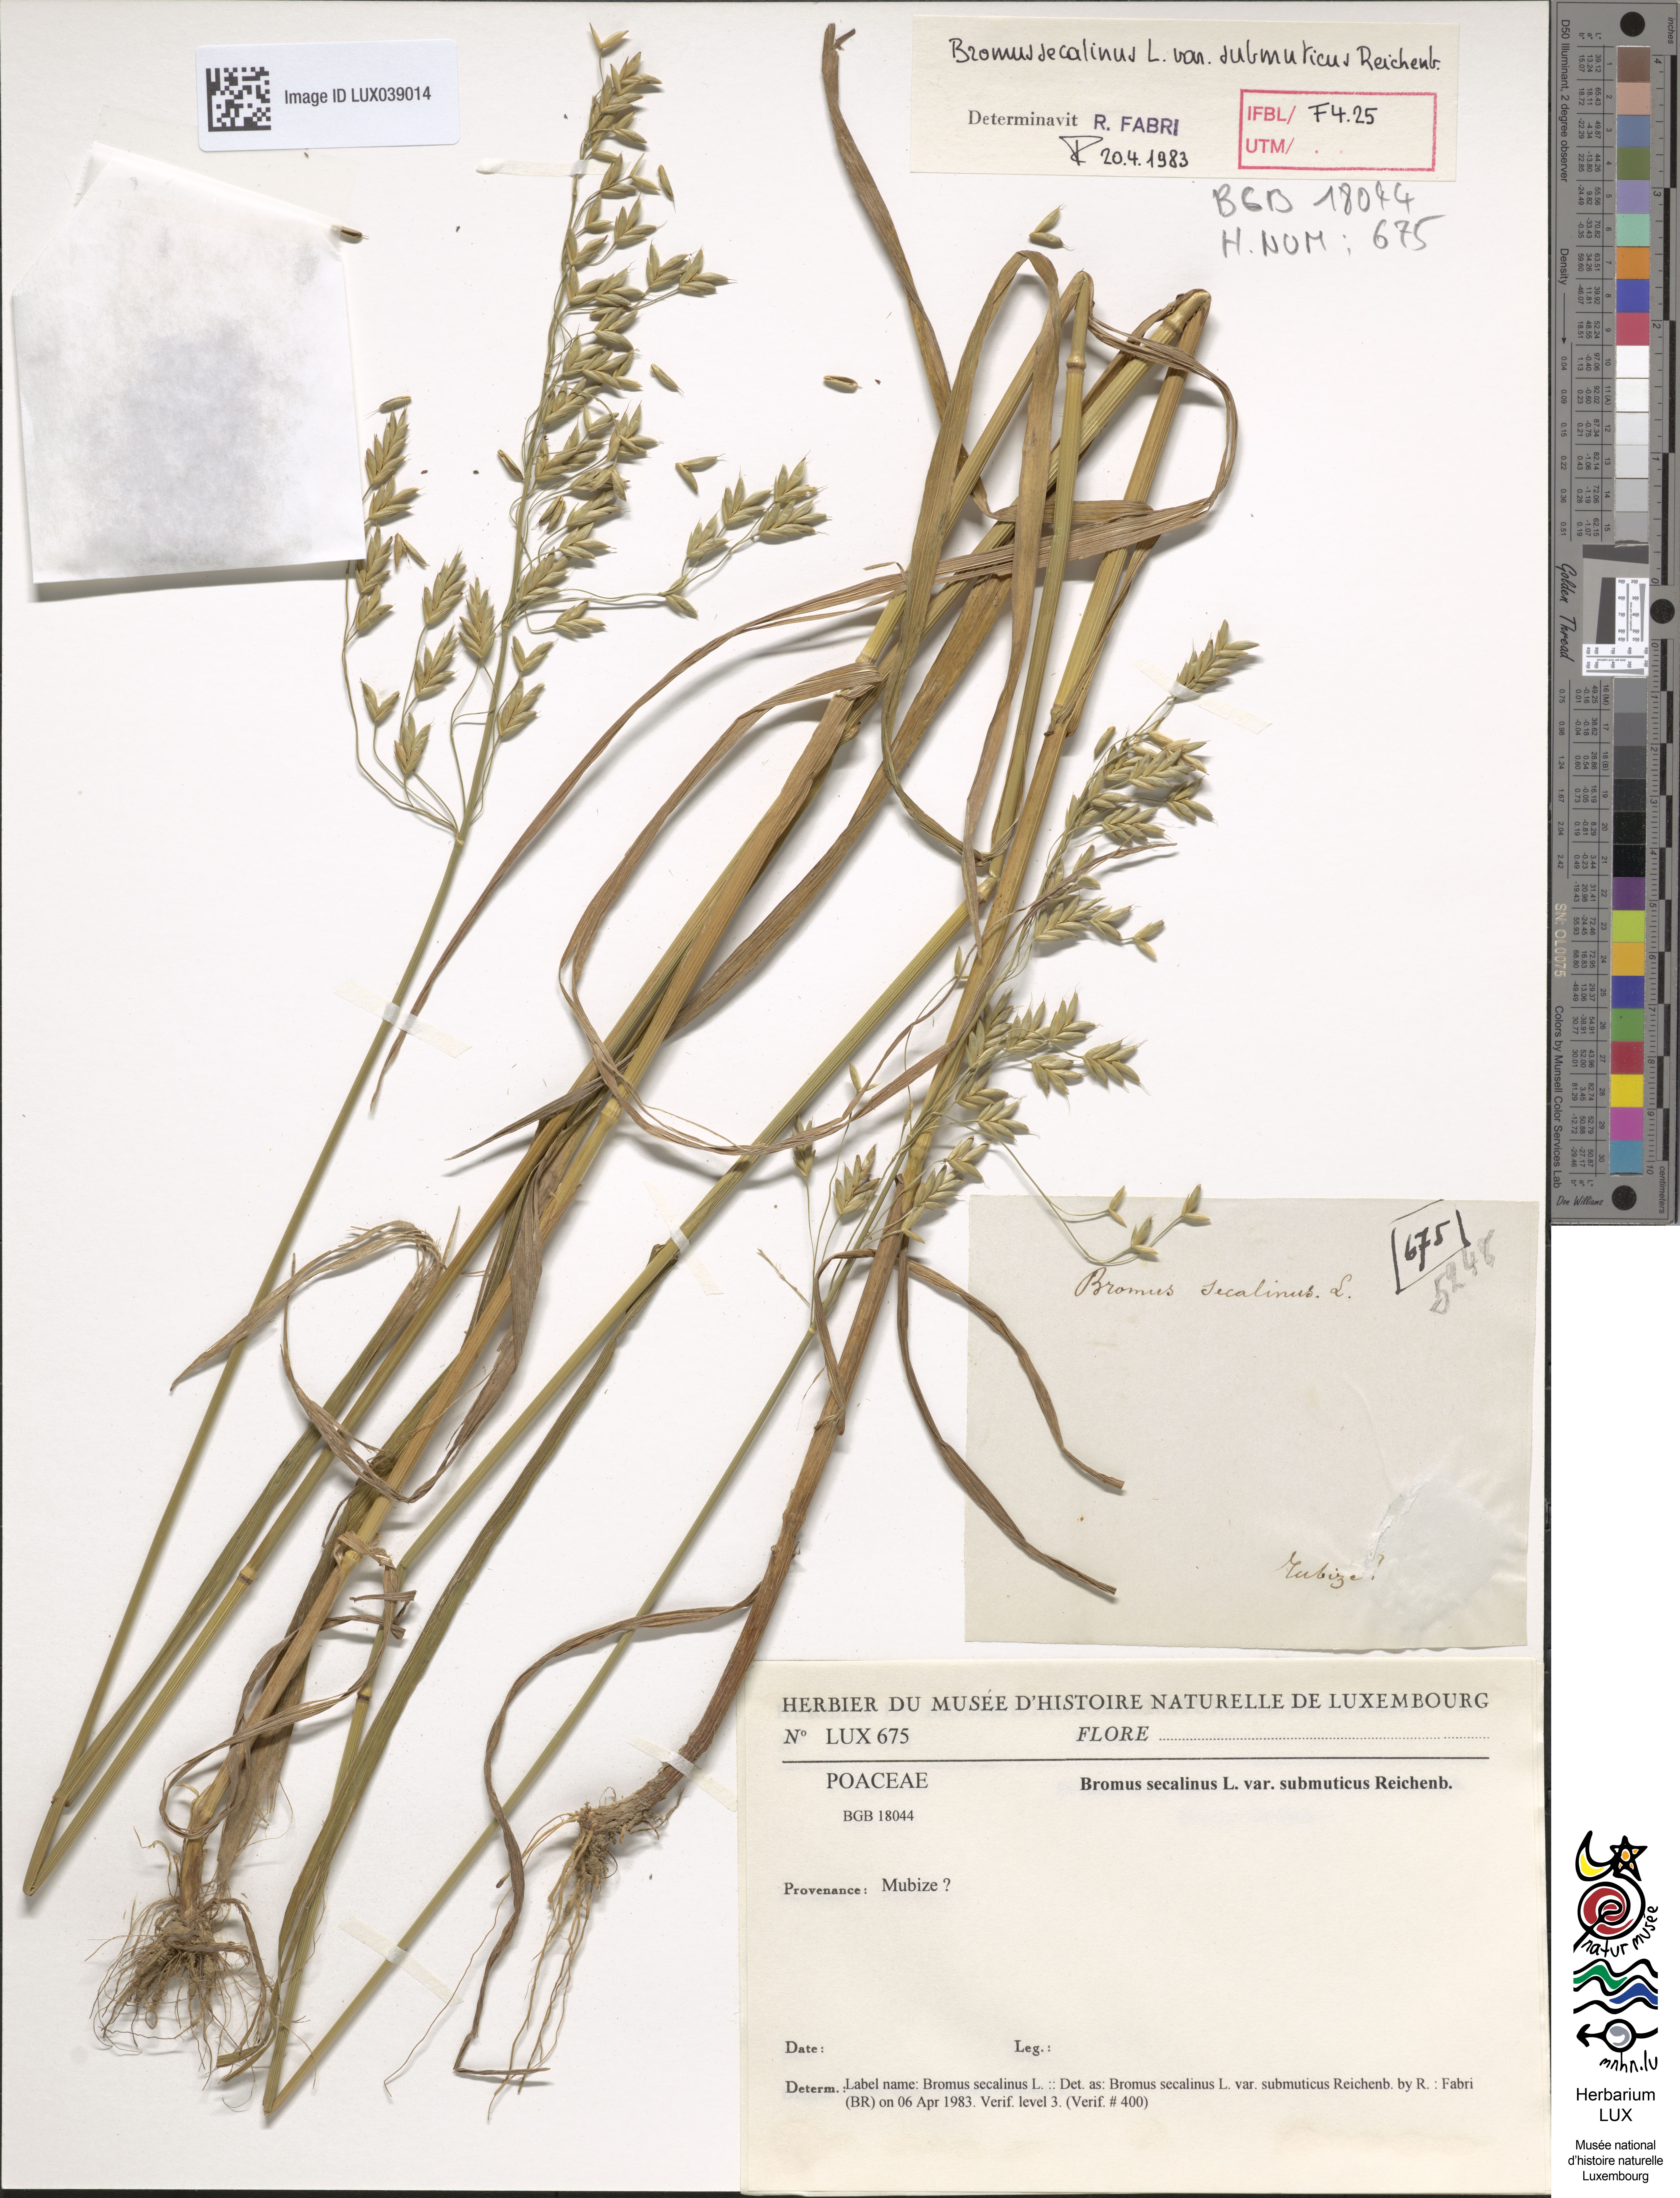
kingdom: Plantae
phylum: Tracheophyta
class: Liliopsida
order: Poales
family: Poaceae
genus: Bromus
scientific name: Bromus secalinus
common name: Rye brome
